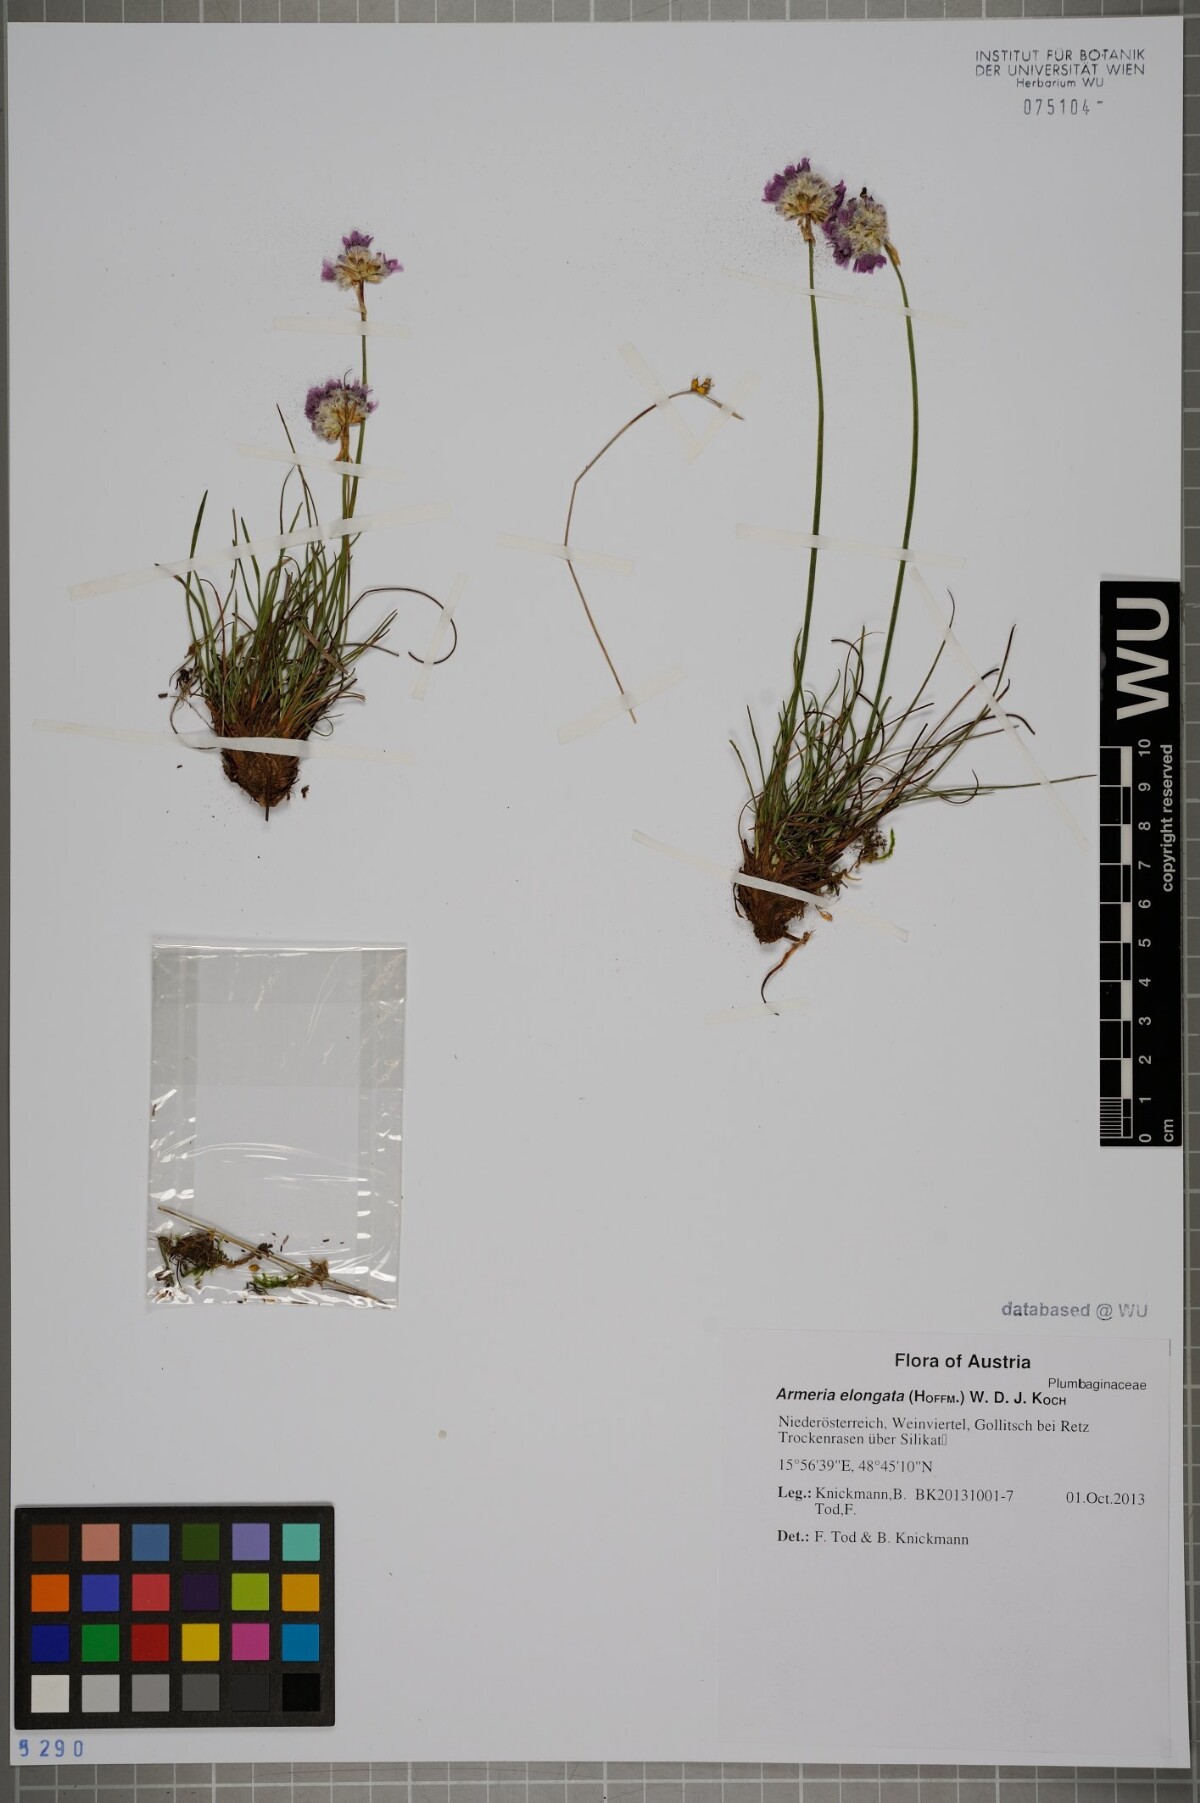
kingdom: Plantae
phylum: Tracheophyta
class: Magnoliopsida
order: Caryophyllales
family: Plumbaginaceae
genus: Armeria
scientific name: Armeria maritima
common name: Thrift
